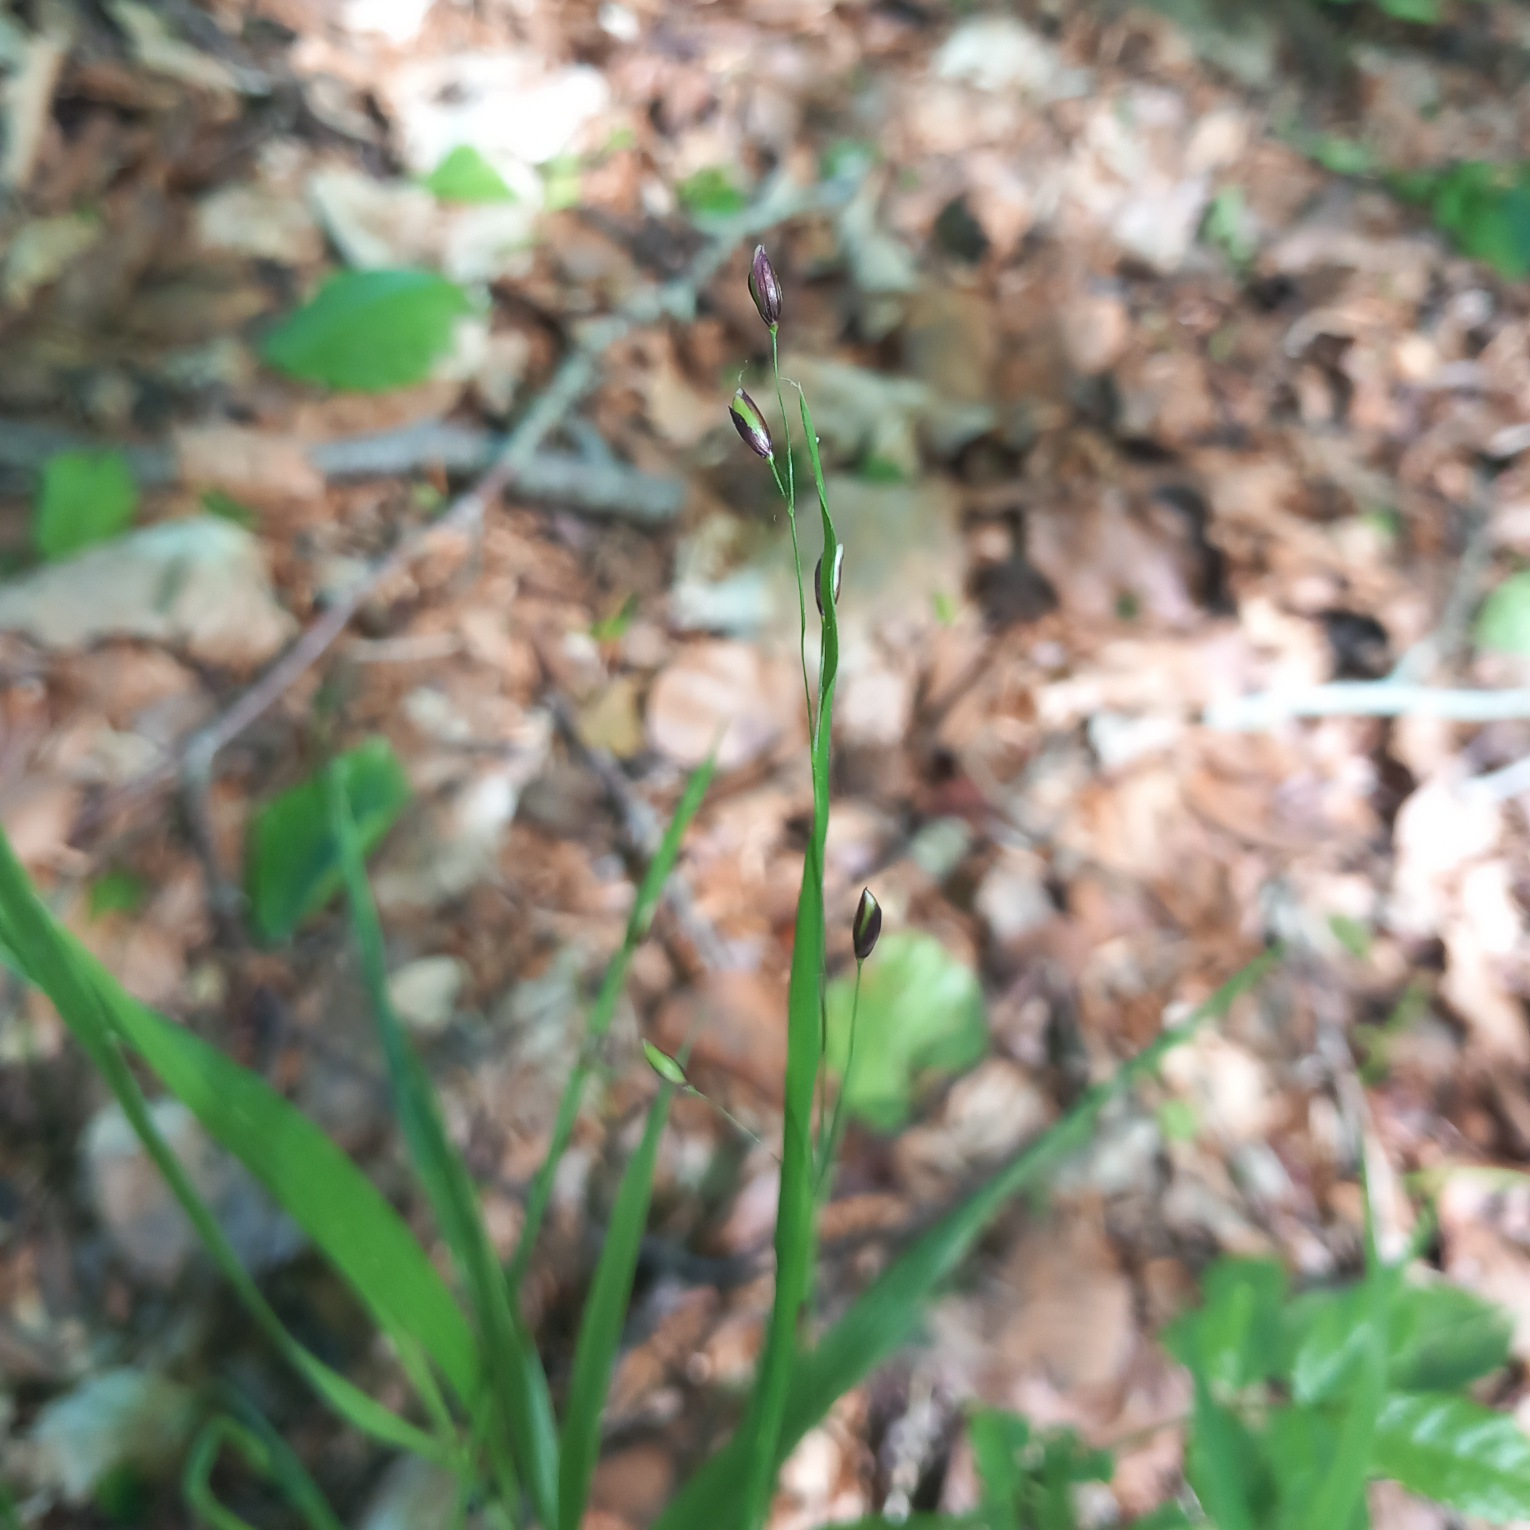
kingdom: Plantae
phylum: Tracheophyta
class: Liliopsida
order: Poales
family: Poaceae
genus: Melica
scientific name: Melica uniflora
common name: Enblomstret flitteraks
